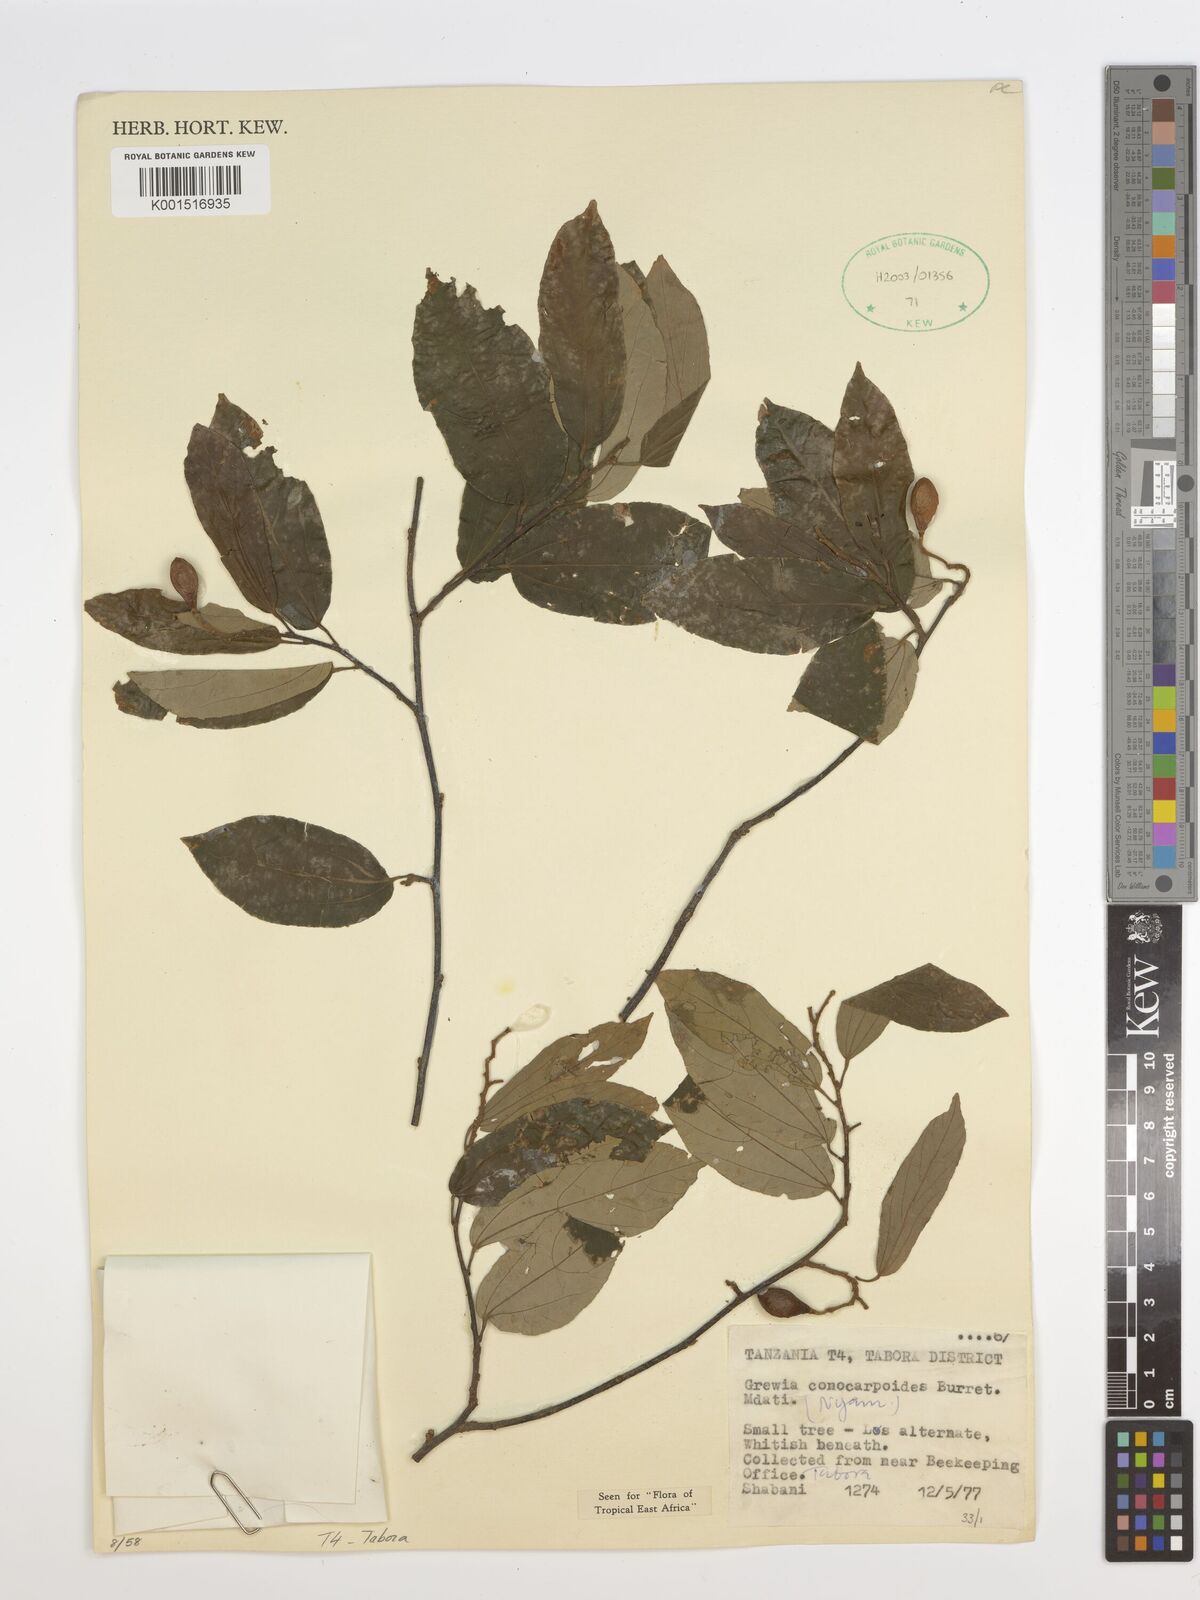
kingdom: Plantae
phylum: Tracheophyta
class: Magnoliopsida
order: Malvales
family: Malvaceae
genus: Microcos
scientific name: Microcos conocarpoides
